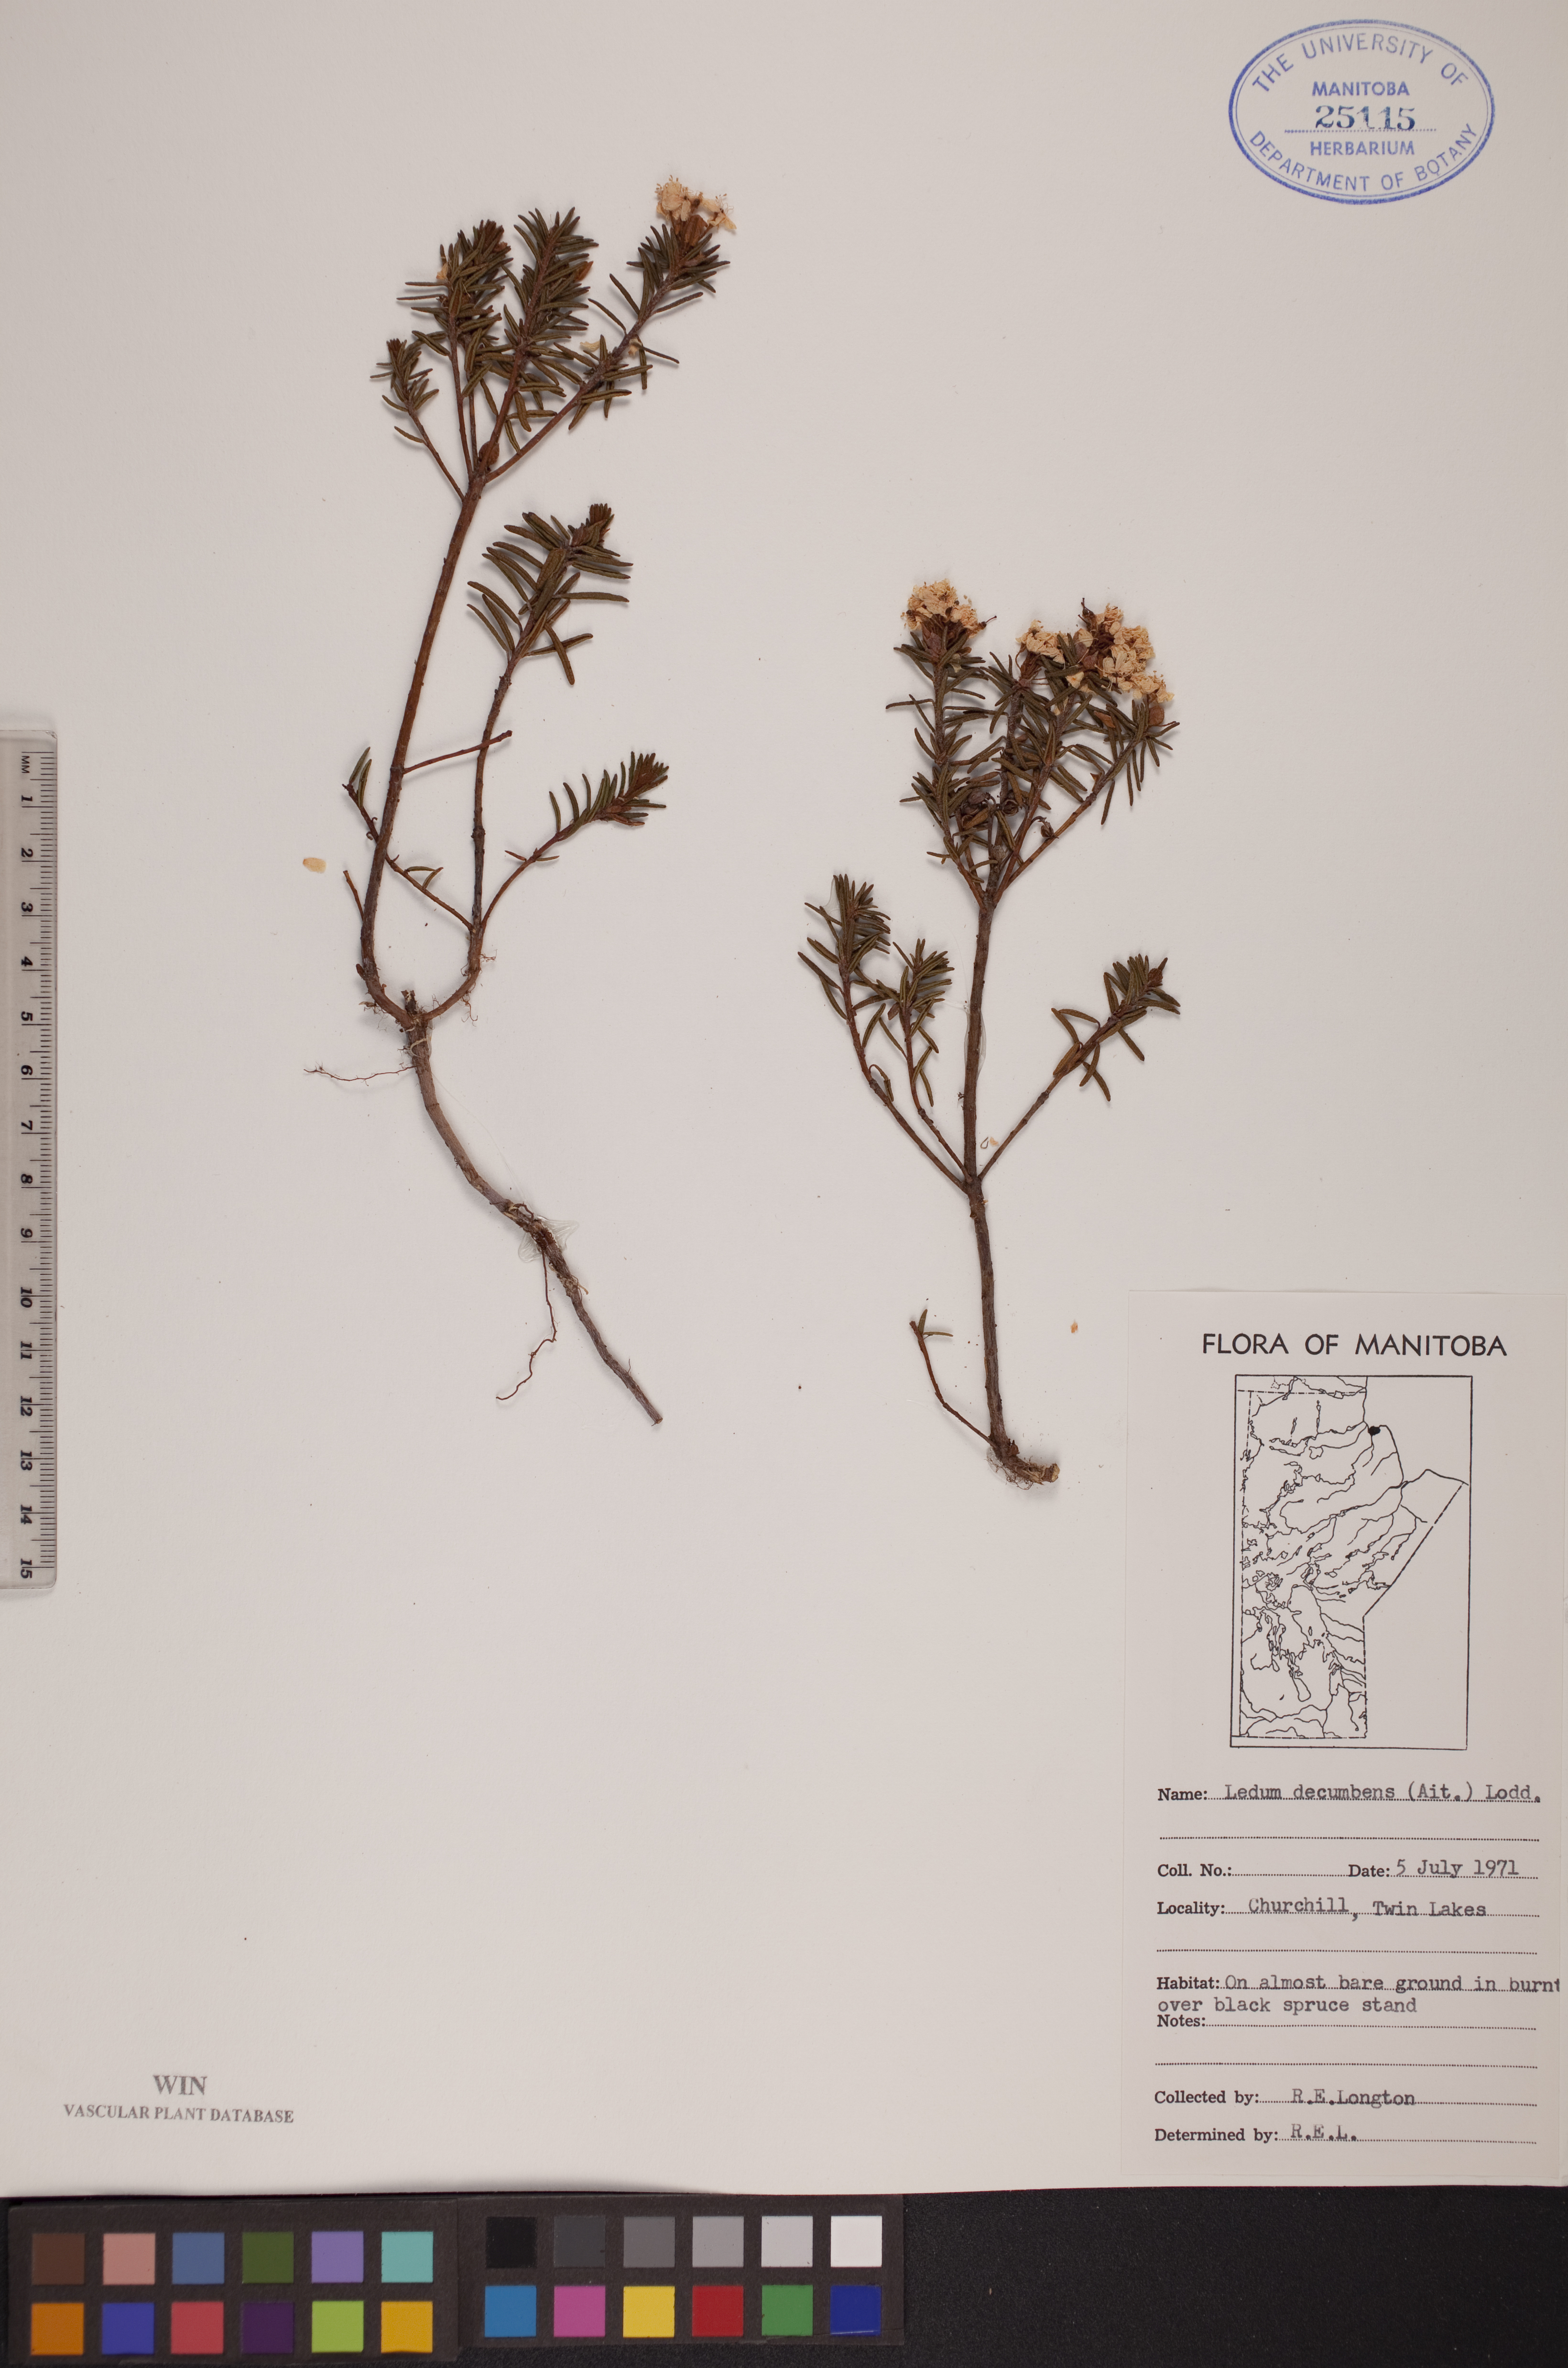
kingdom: Plantae
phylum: Tracheophyta
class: Magnoliopsida
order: Ericales
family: Ericaceae
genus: Rhododendron
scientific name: Rhododendron tomentosum
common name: Marsh labrador tea
